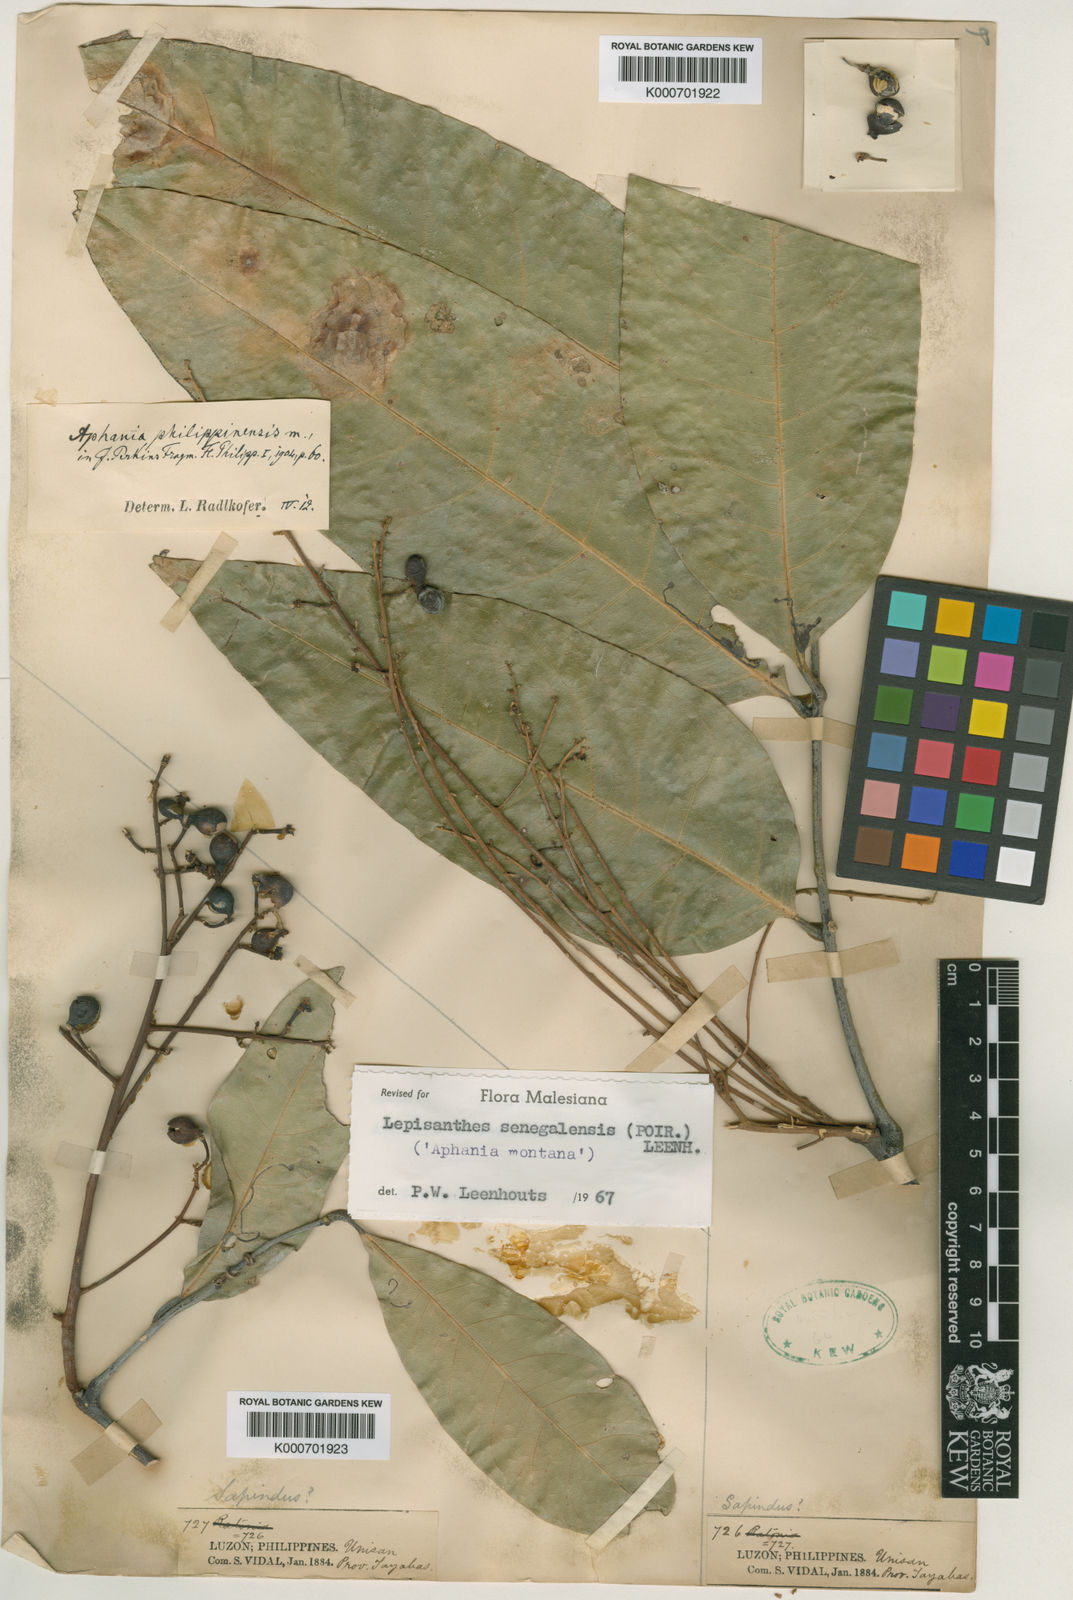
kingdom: Plantae
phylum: Tracheophyta
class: Magnoliopsida
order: Sapindales
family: Sapindaceae
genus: Lepisanthes
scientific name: Lepisanthes senegalensis
